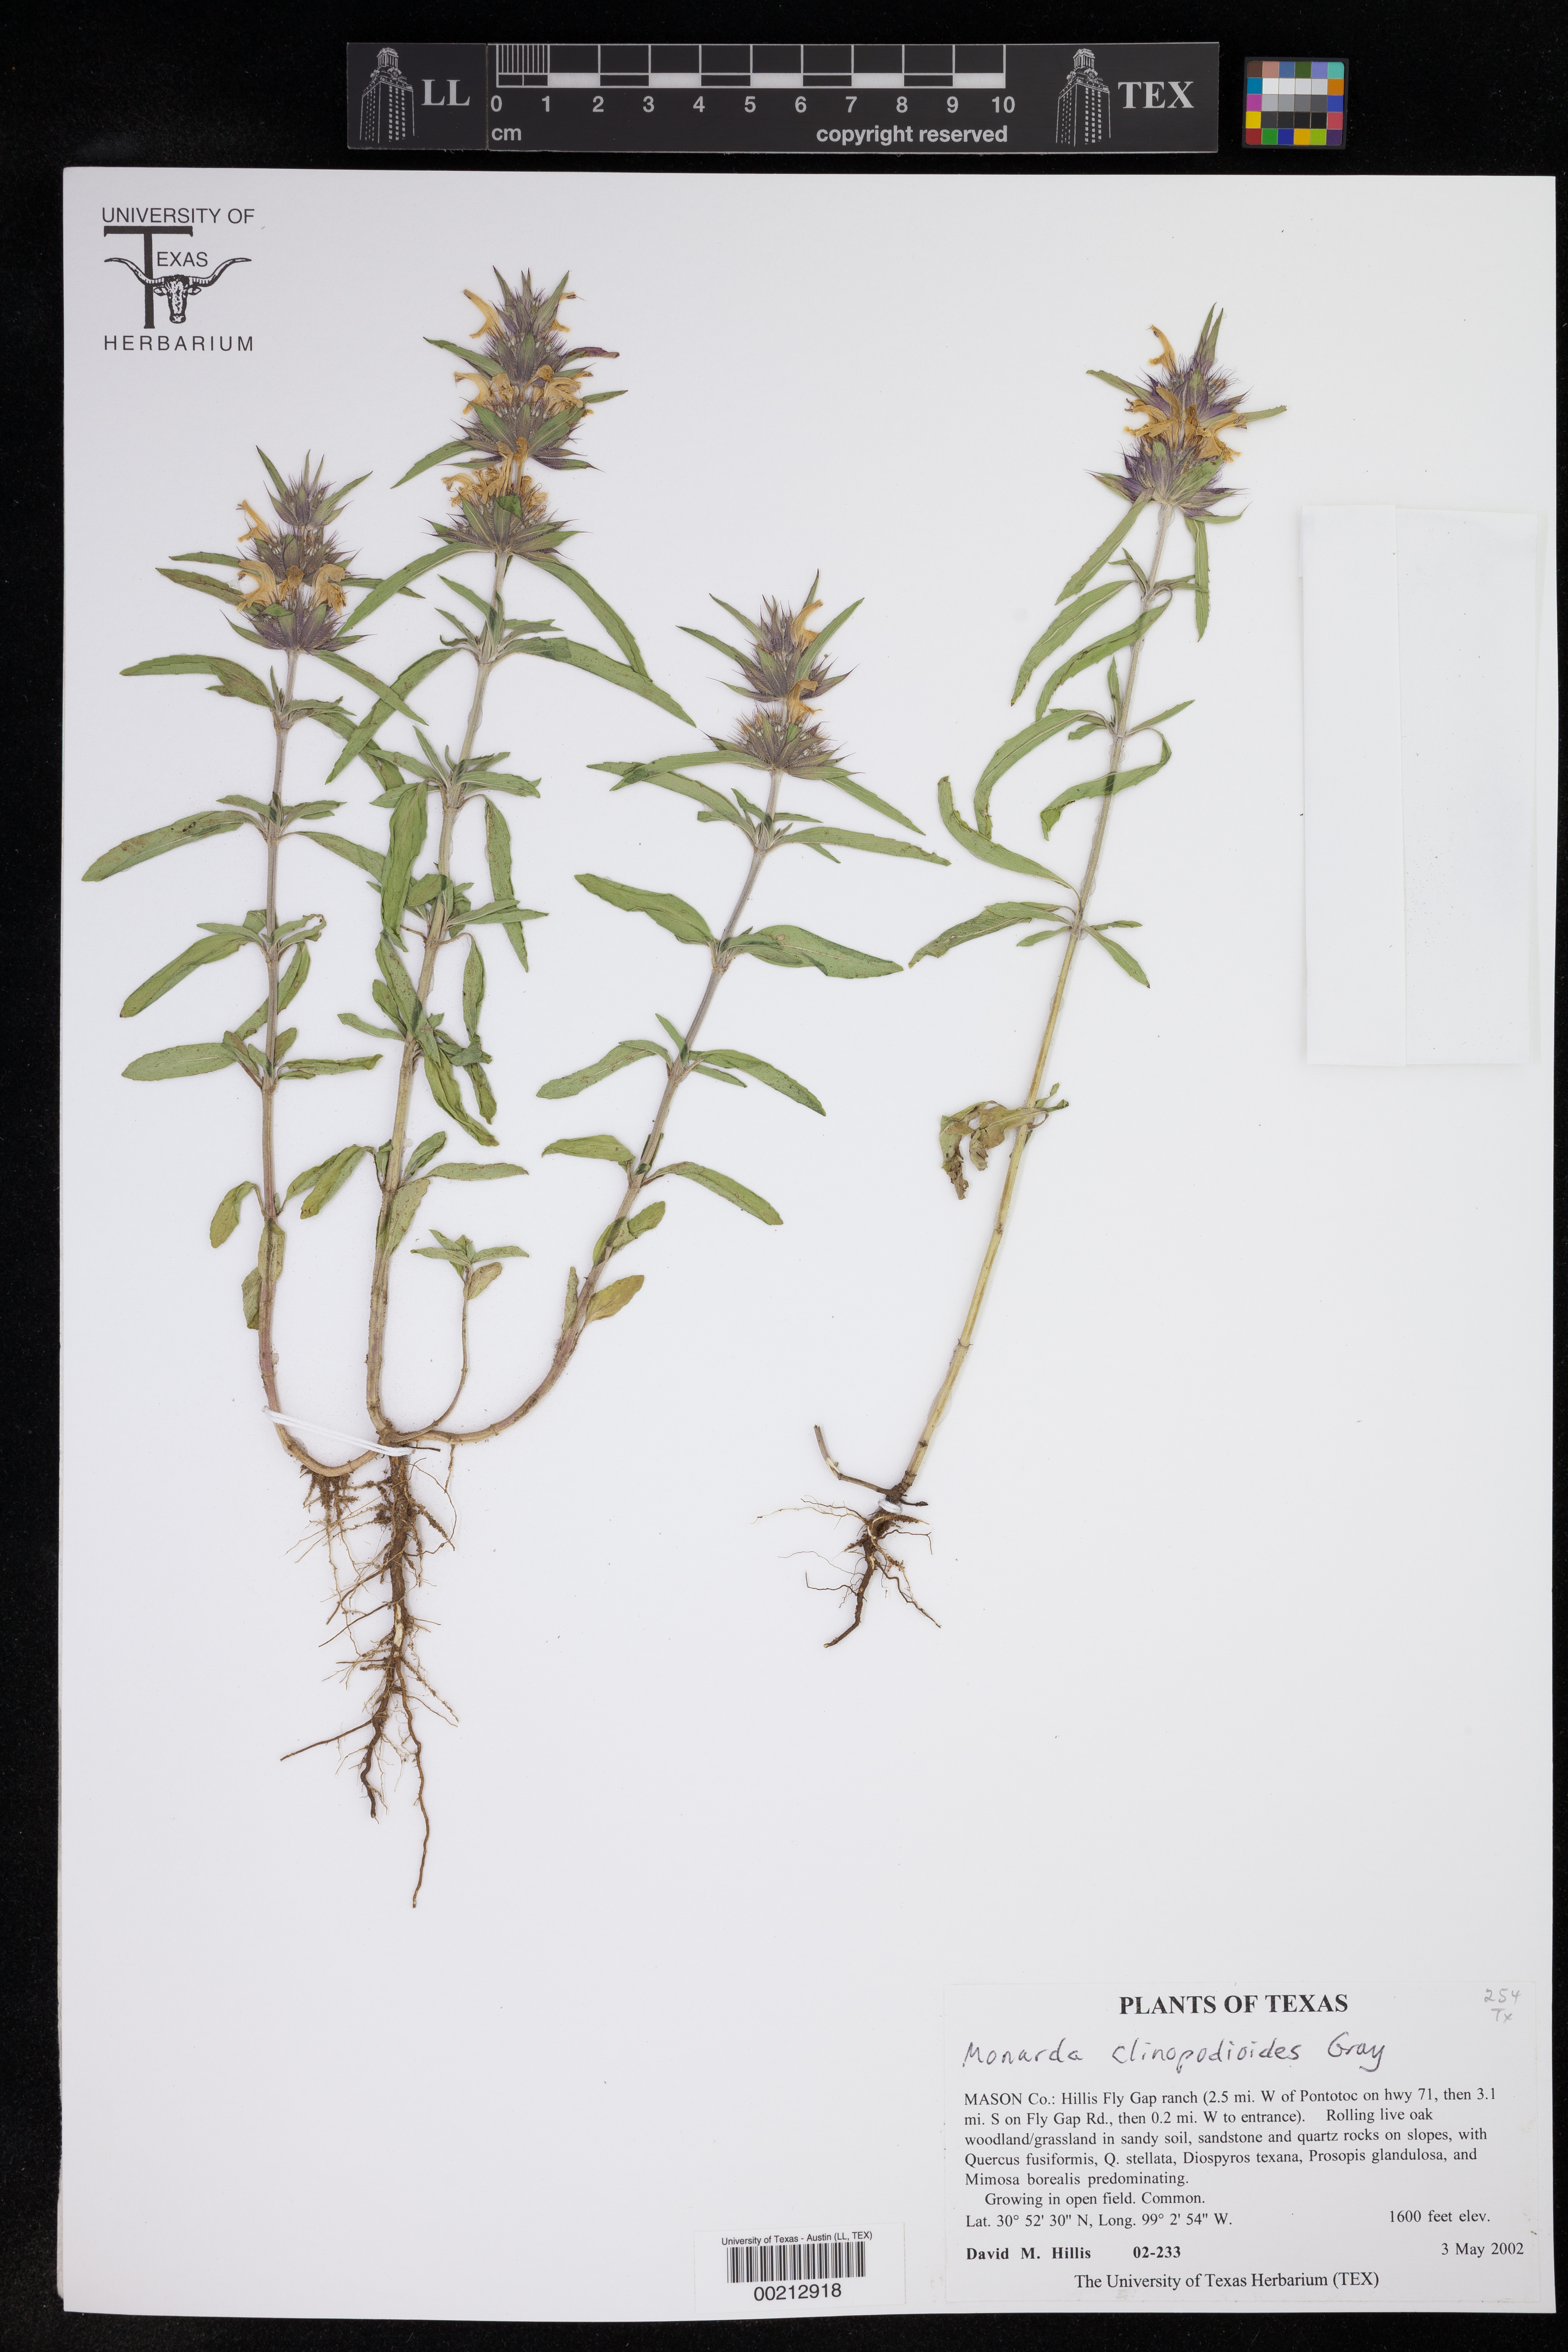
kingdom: Plantae
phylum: Tracheophyta
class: Magnoliopsida
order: Lamiales
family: Lamiaceae
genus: Monarda
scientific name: Monarda clinopodioides
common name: Basil beebalm
